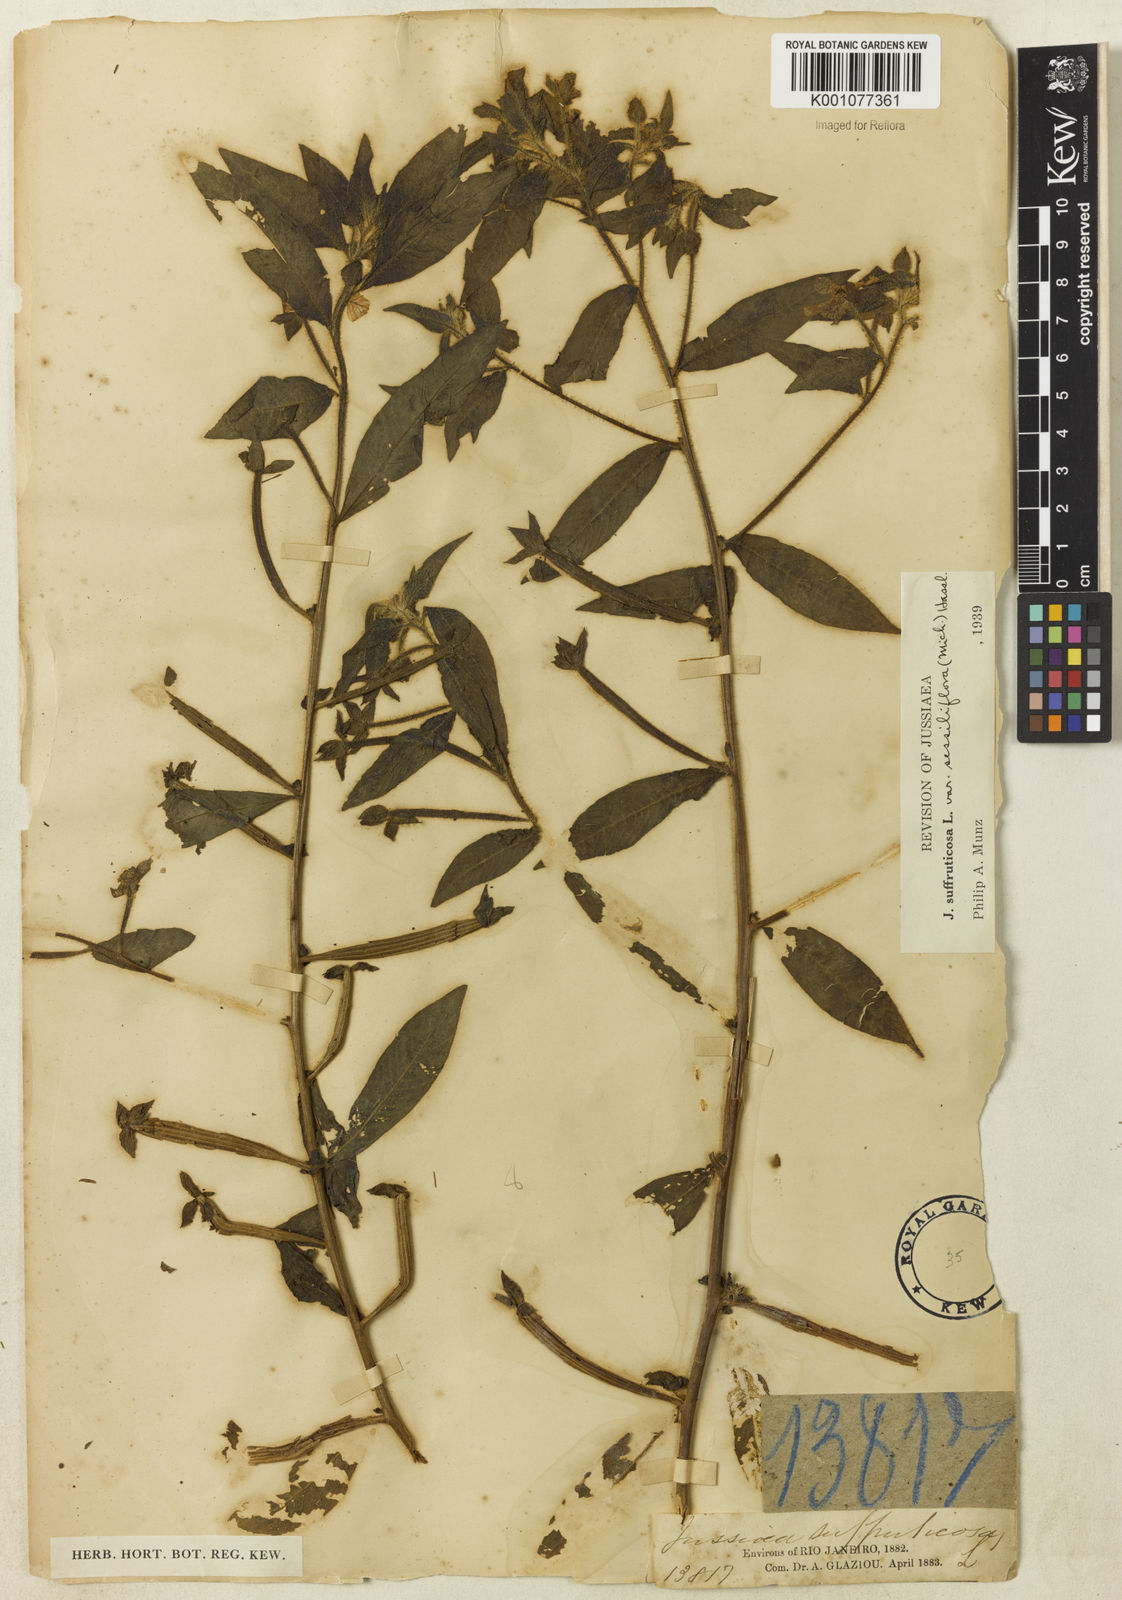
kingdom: Plantae
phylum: Tracheophyta
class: Magnoliopsida
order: Myrtales
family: Onagraceae
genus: Ludwigia
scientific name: Ludwigia octovalvis
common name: Water-primrose
